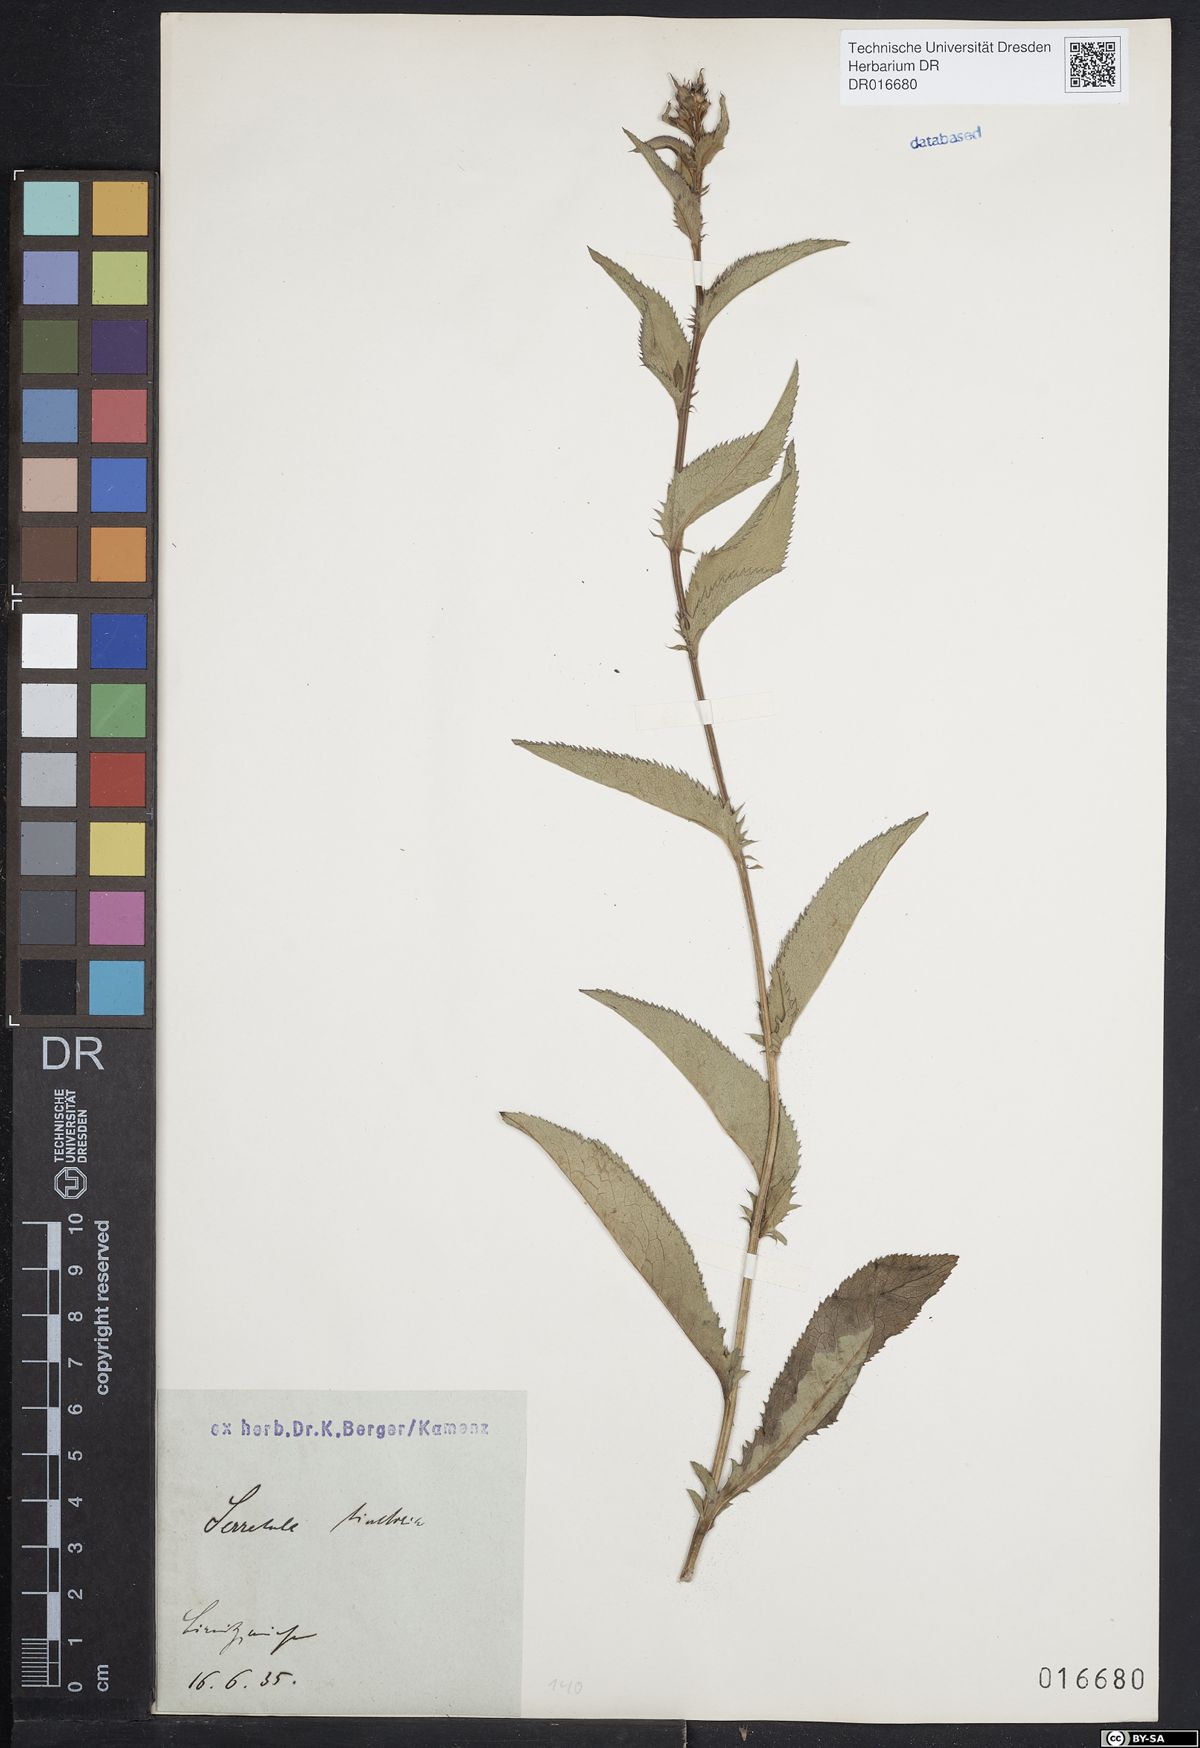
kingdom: Plantae
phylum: Tracheophyta
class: Magnoliopsida
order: Asterales
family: Asteraceae
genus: Serratula
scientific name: Serratula tinctoria
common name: Saw-wort
